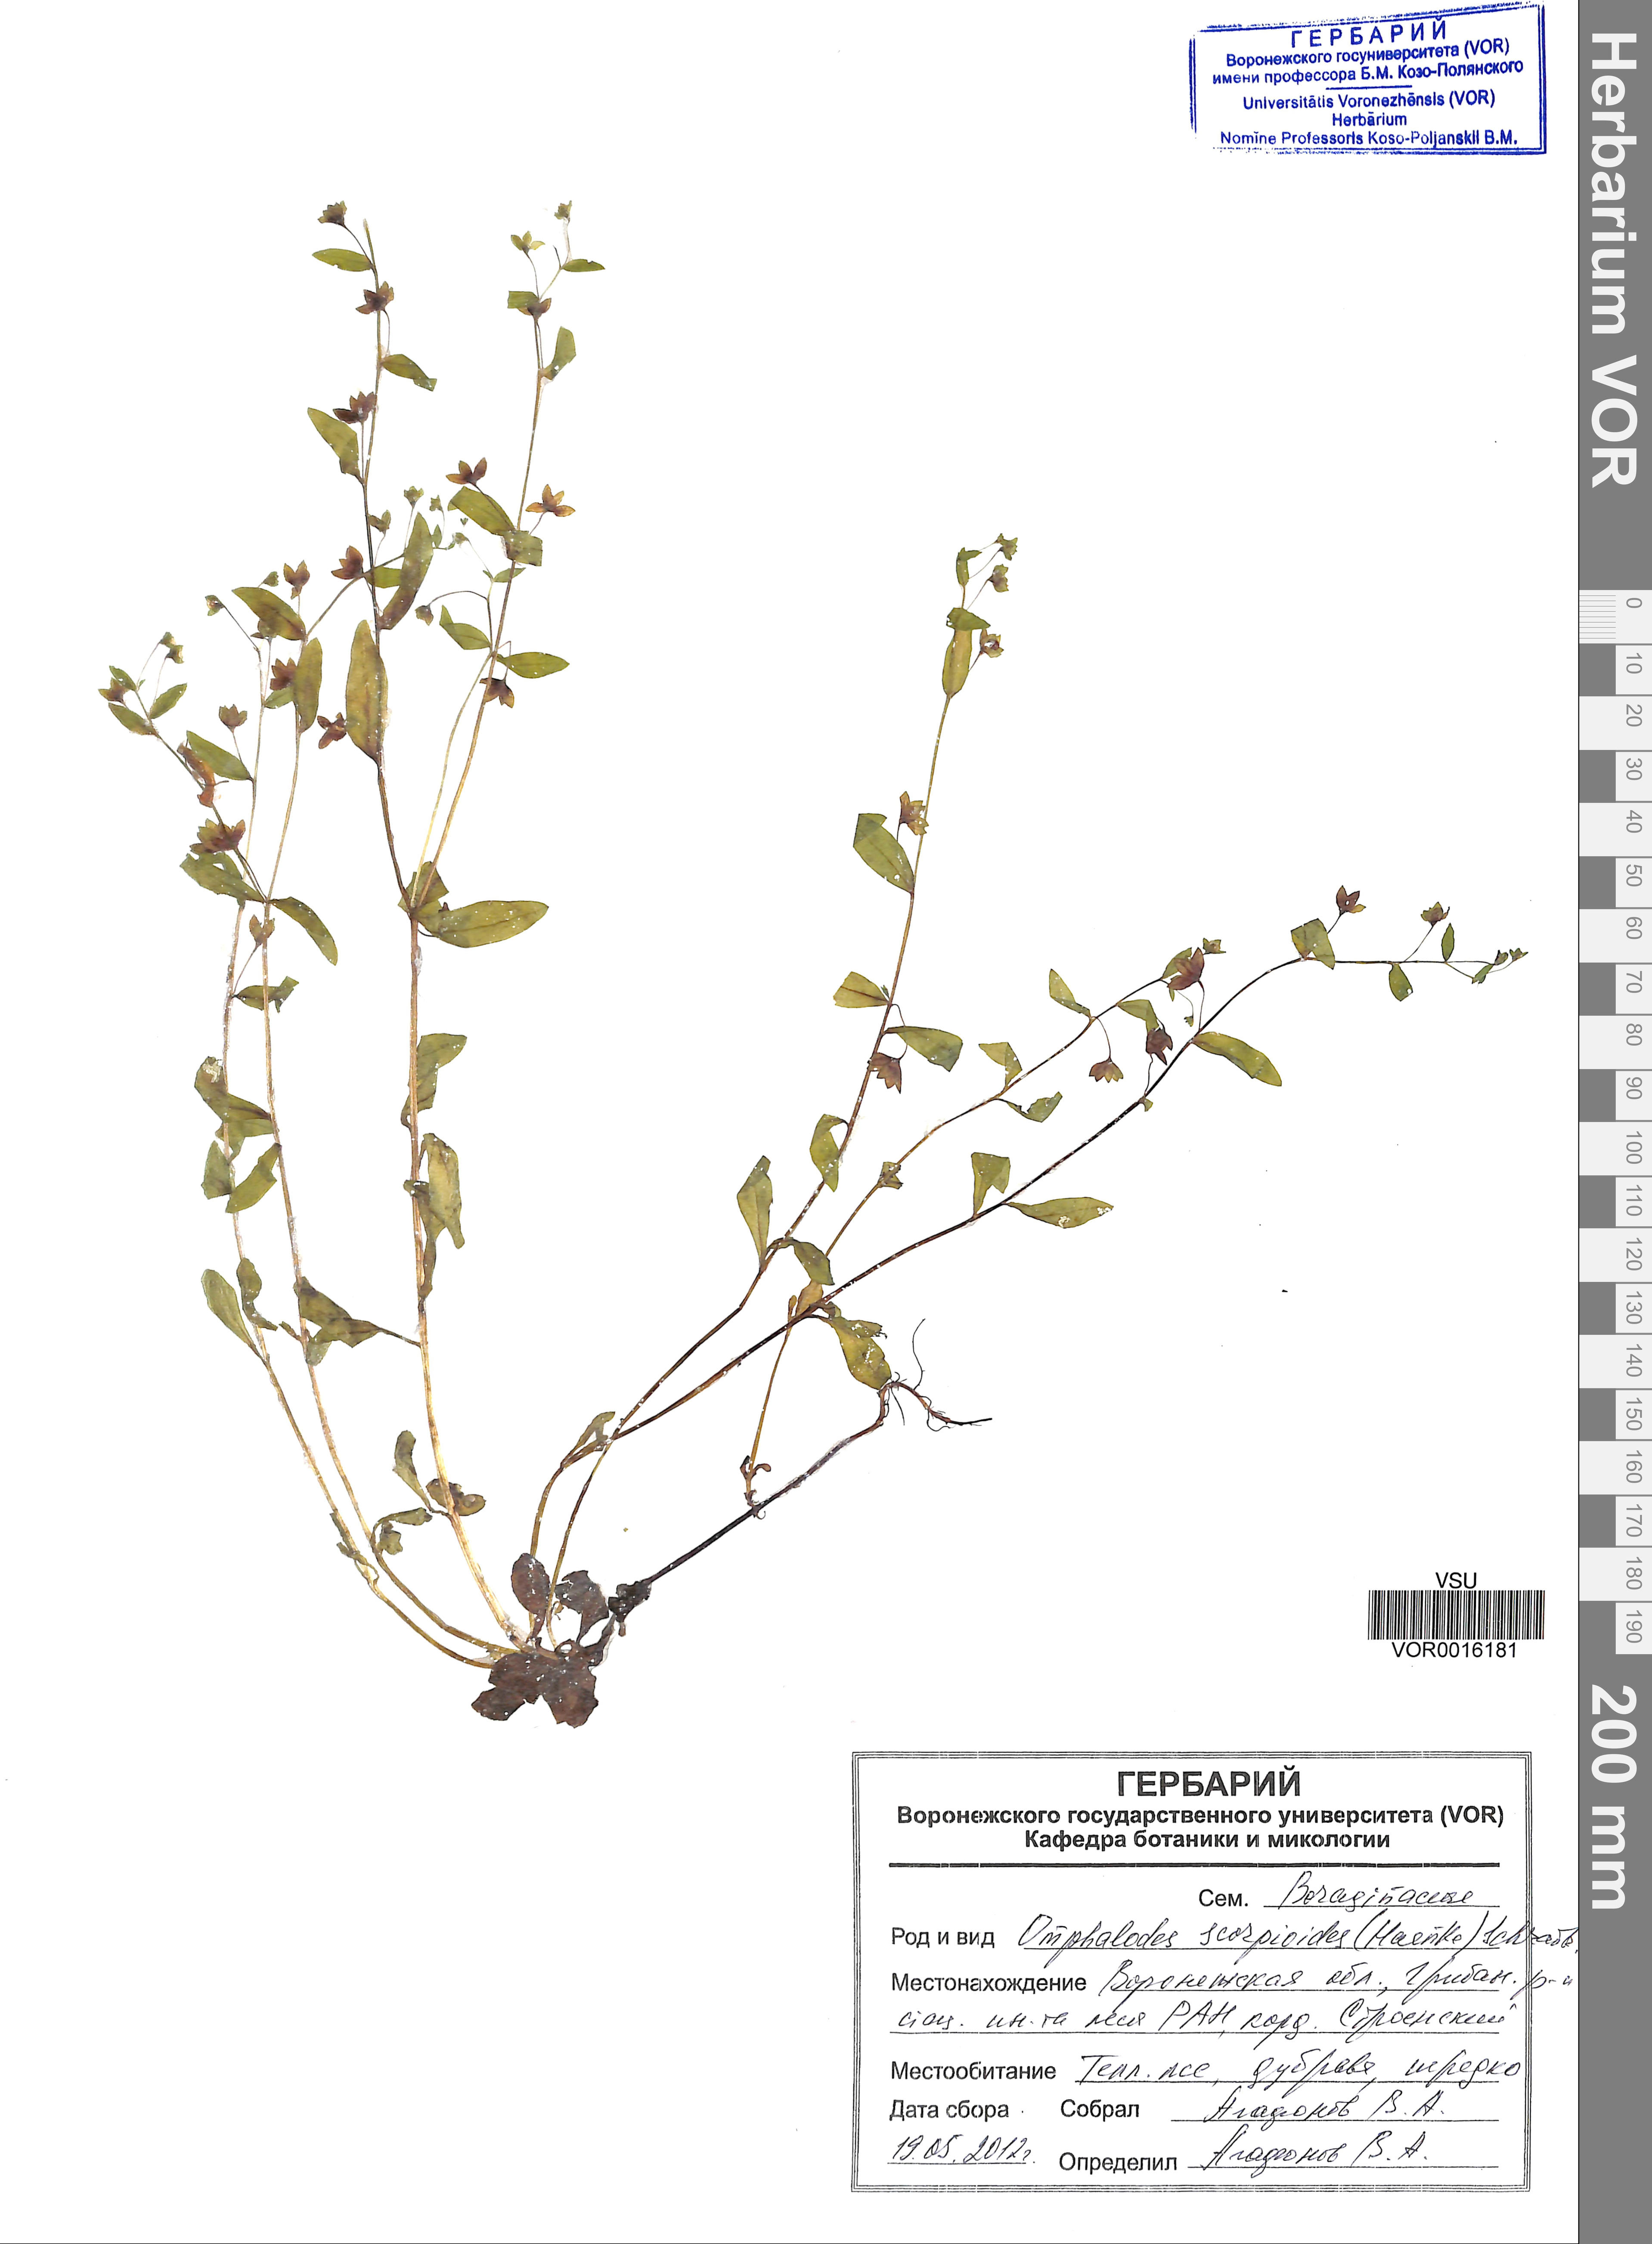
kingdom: Plantae
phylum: Tracheophyta
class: Magnoliopsida
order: Boraginales
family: Boraginaceae
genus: Memoremea
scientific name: Memoremea scorpioides
